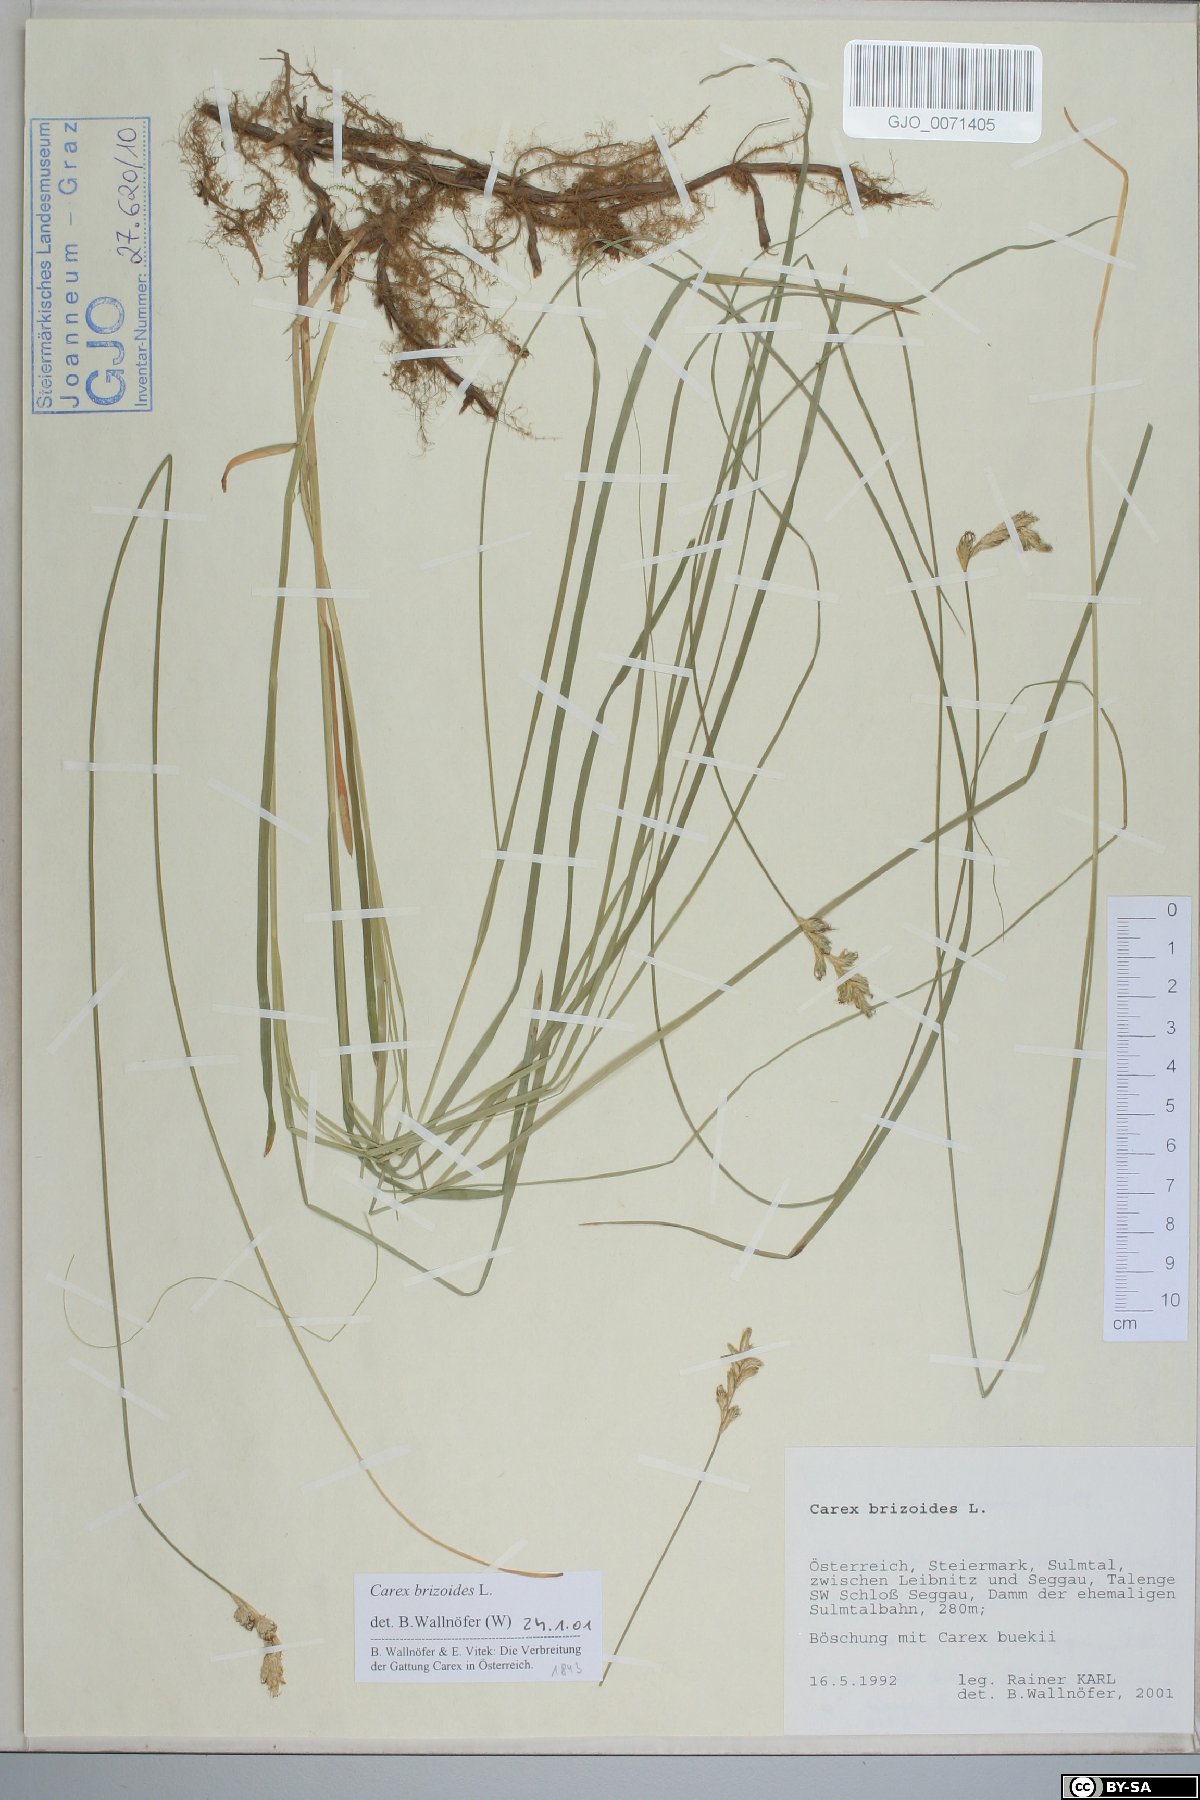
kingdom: Plantae
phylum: Tracheophyta
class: Liliopsida
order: Poales
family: Cyperaceae
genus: Carex
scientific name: Carex brizoides
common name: Quaking-grass sedge
